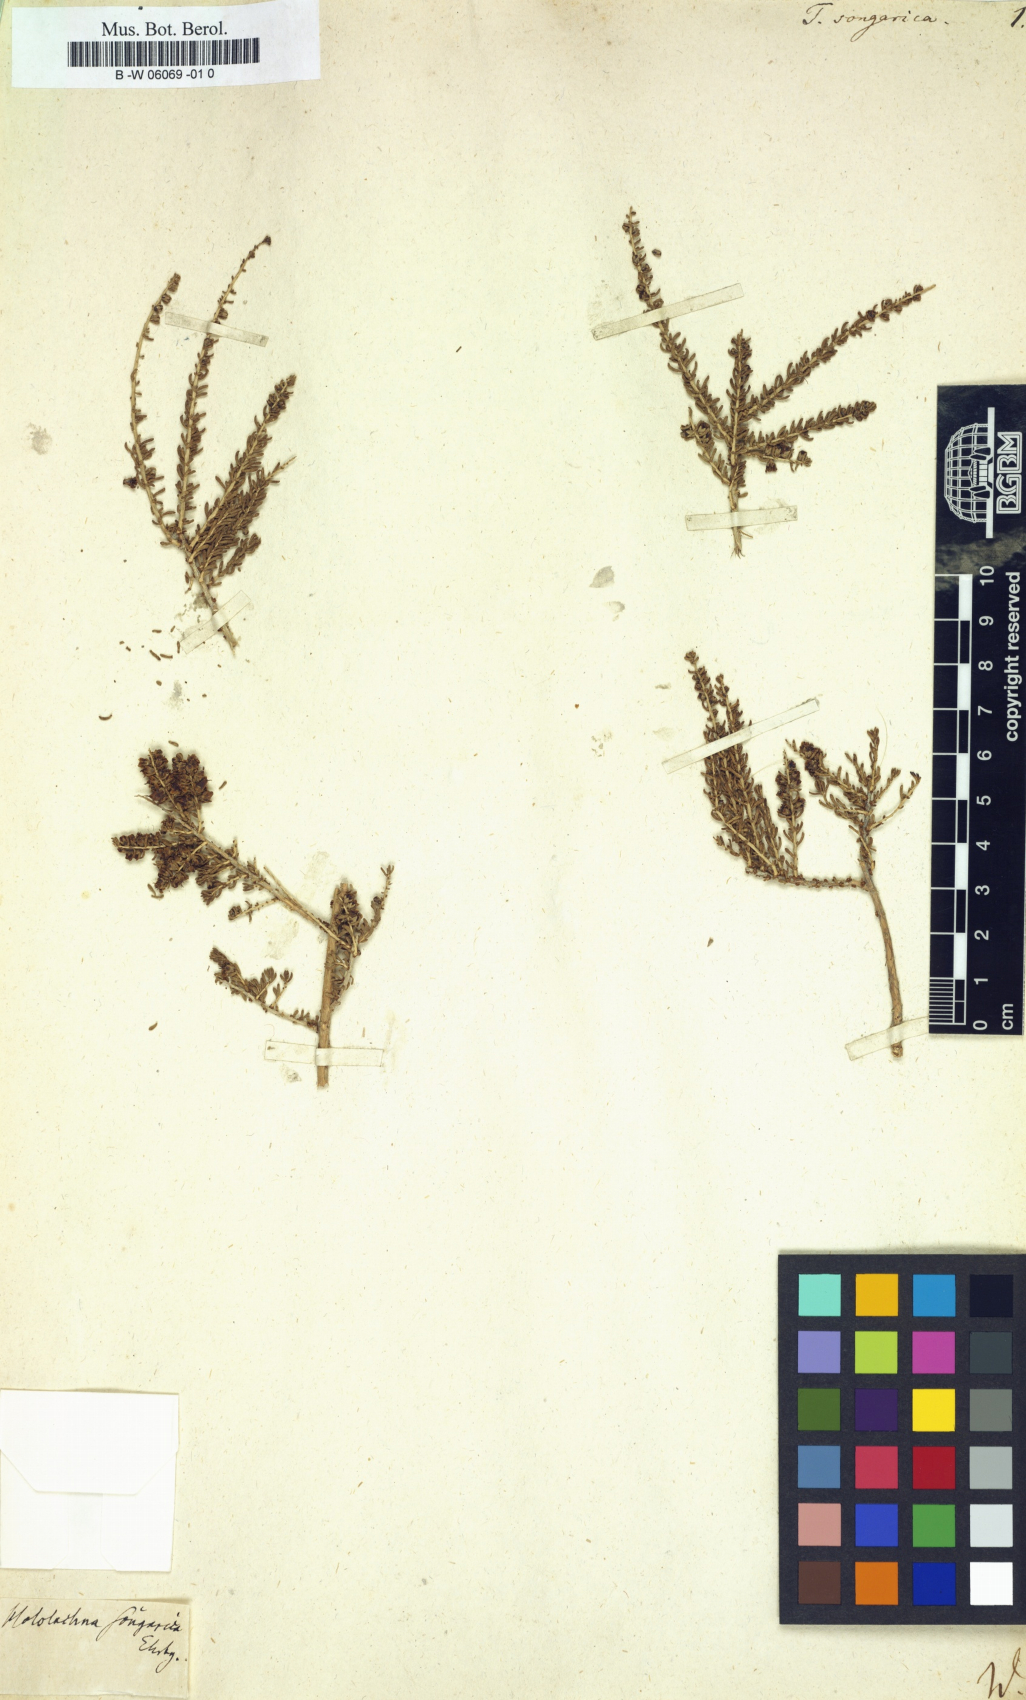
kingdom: Plantae
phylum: Tracheophyta
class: Magnoliopsida
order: Caryophyllales
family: Tamaricaceae
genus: Reaumuria
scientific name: Reaumuria songarica
